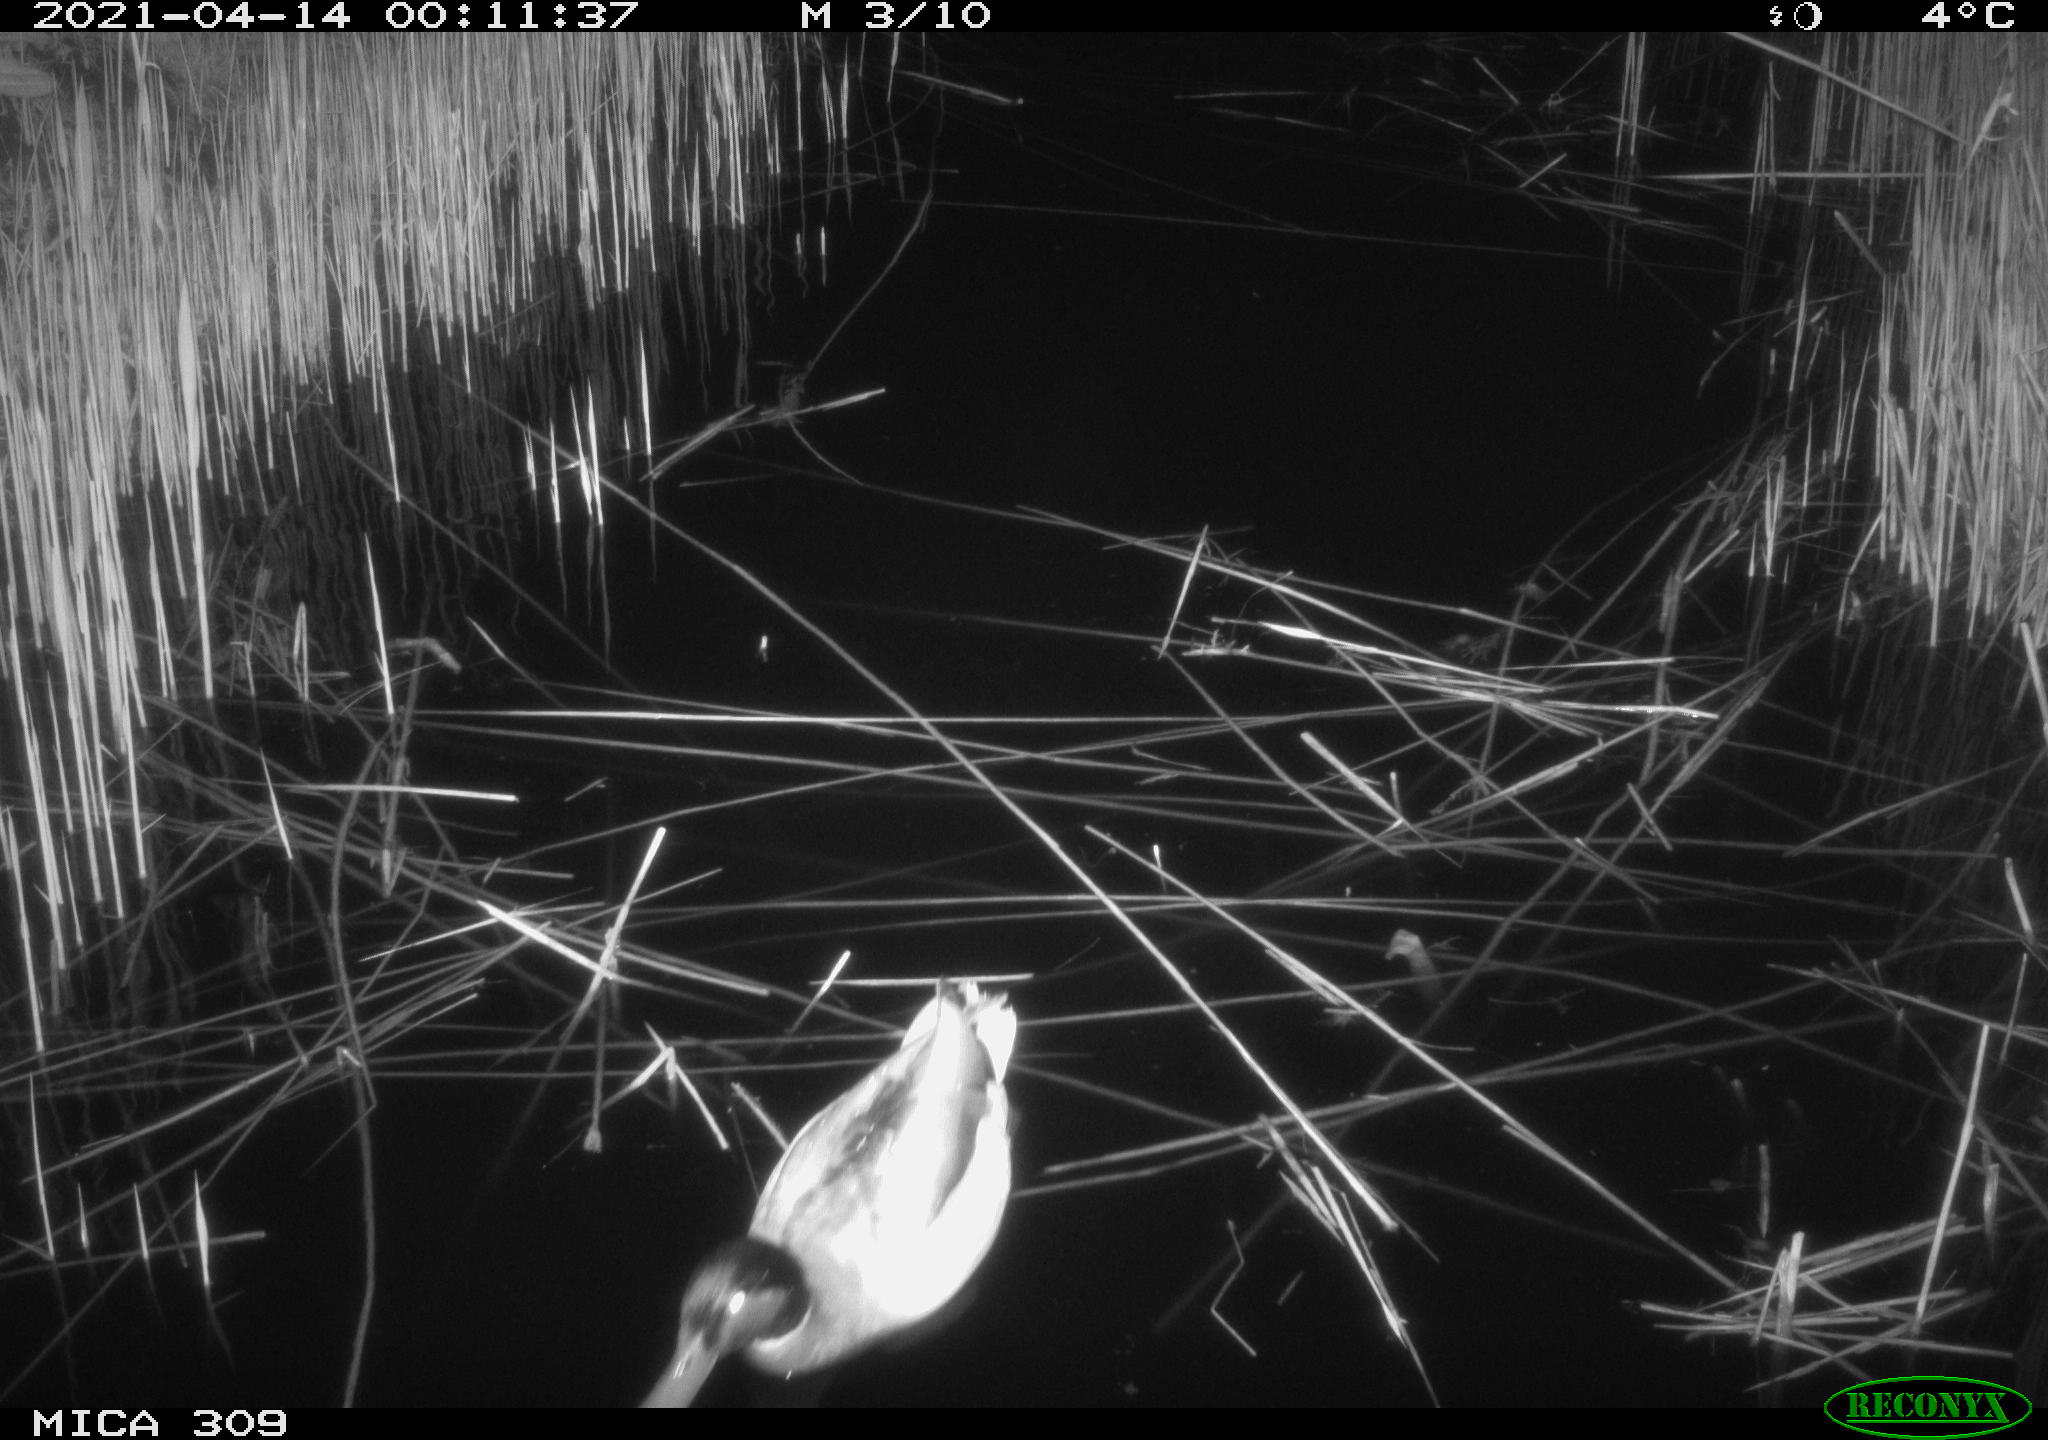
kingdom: Animalia
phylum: Chordata
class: Aves
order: Anseriformes
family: Anatidae
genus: Anas
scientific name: Anas platyrhynchos
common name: Mallard
